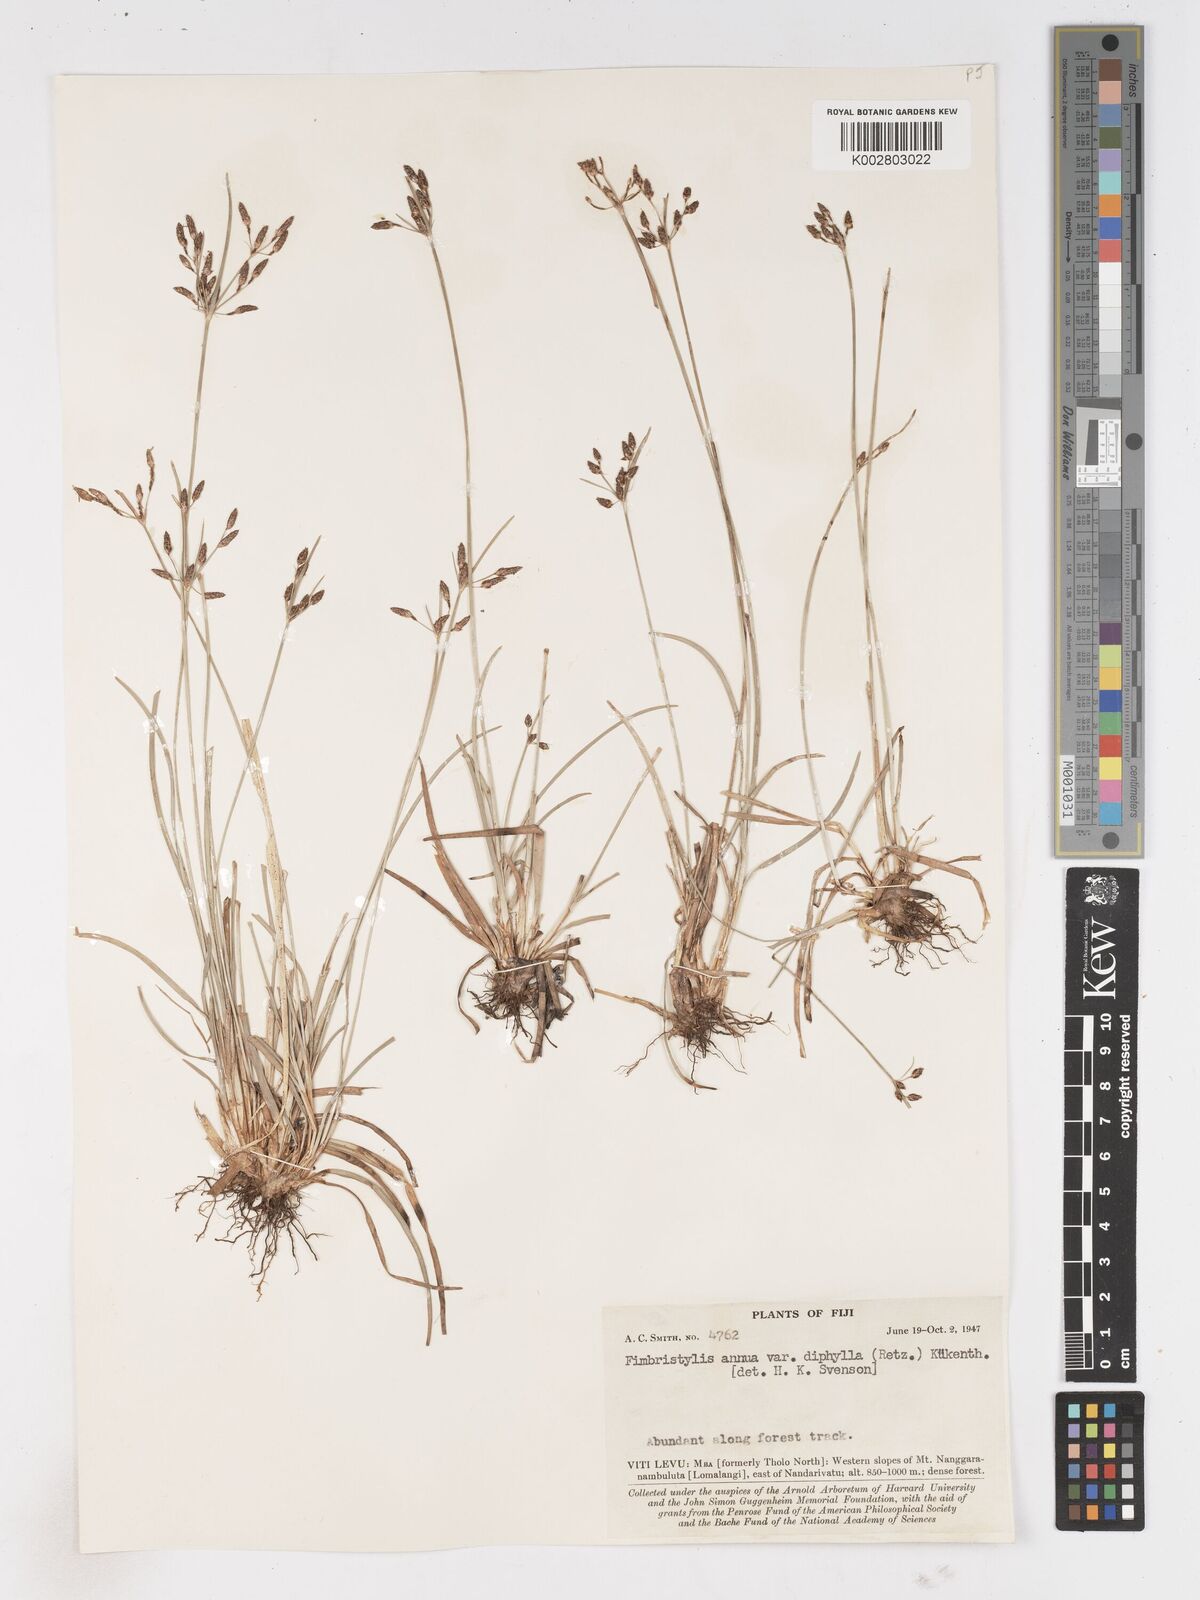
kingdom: Plantae
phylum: Tracheophyta
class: Liliopsida
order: Poales
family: Cyperaceae
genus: Fimbristylis
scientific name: Fimbristylis dichotoma
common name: Forked fimbry
